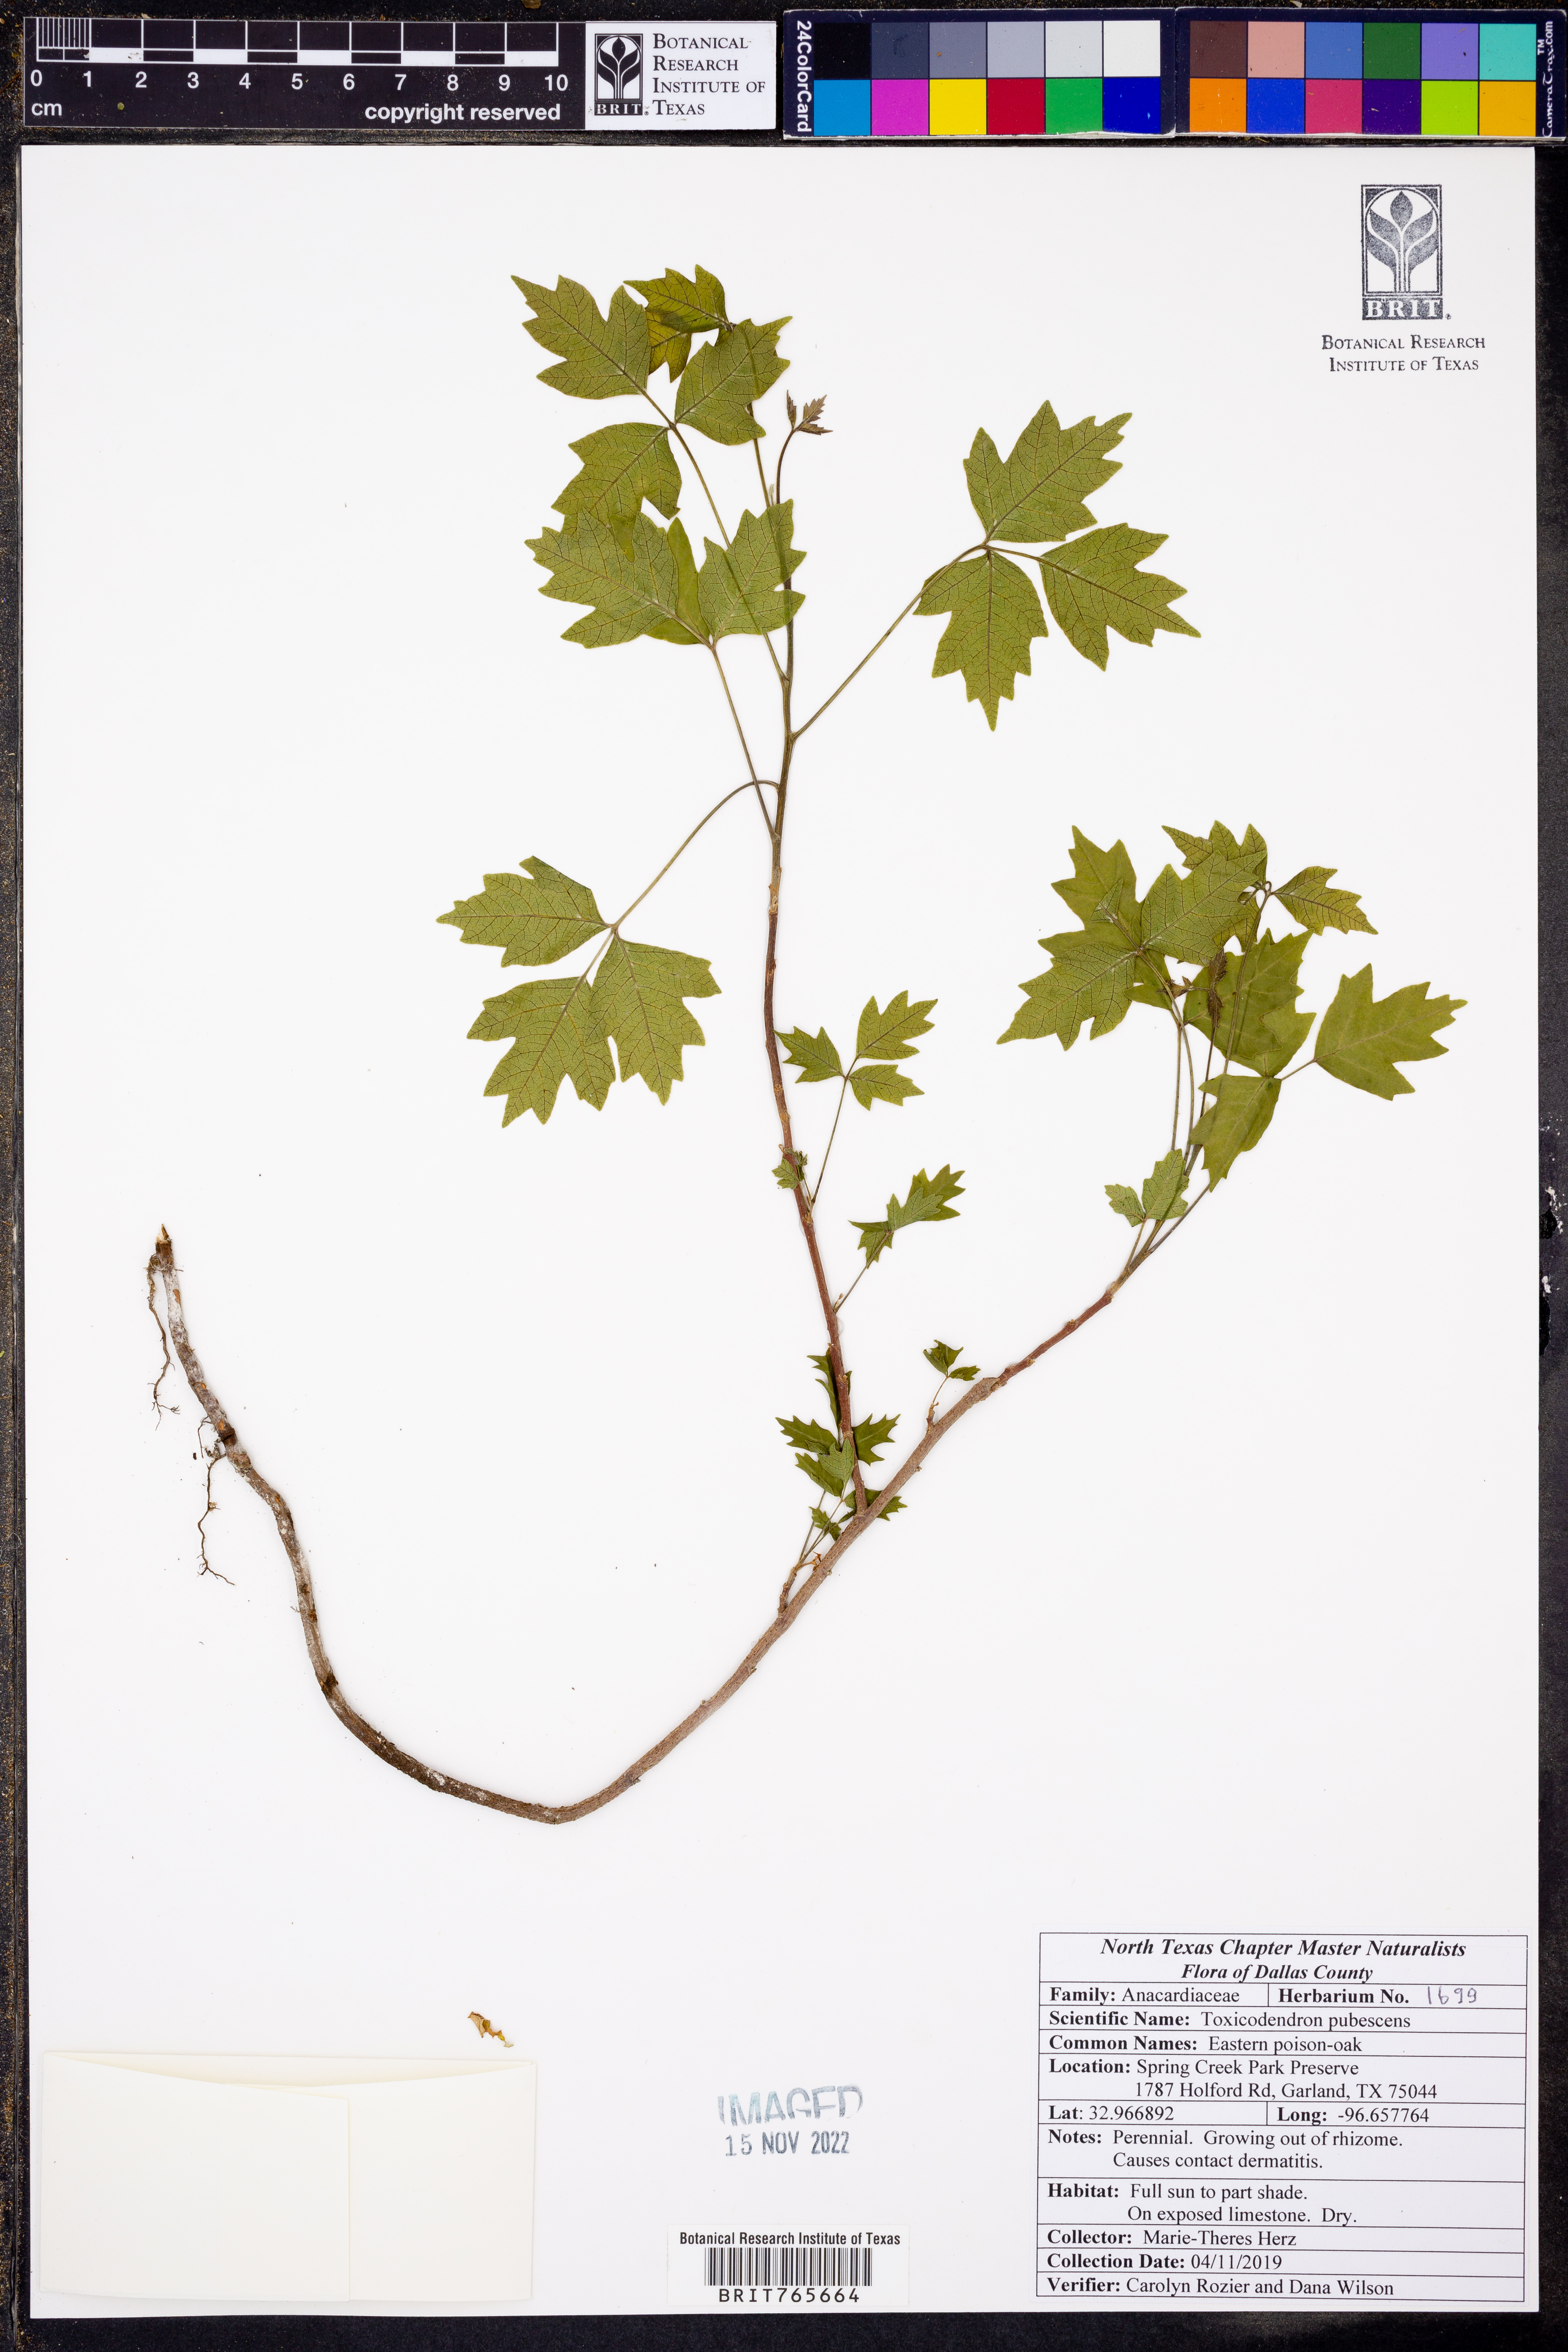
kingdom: Plantae
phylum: Tracheophyta
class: Magnoliopsida
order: Sapindales
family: Anacardiaceae
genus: Toxicodendron
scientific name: Toxicodendron pubescens
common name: Eastern poison-oak
